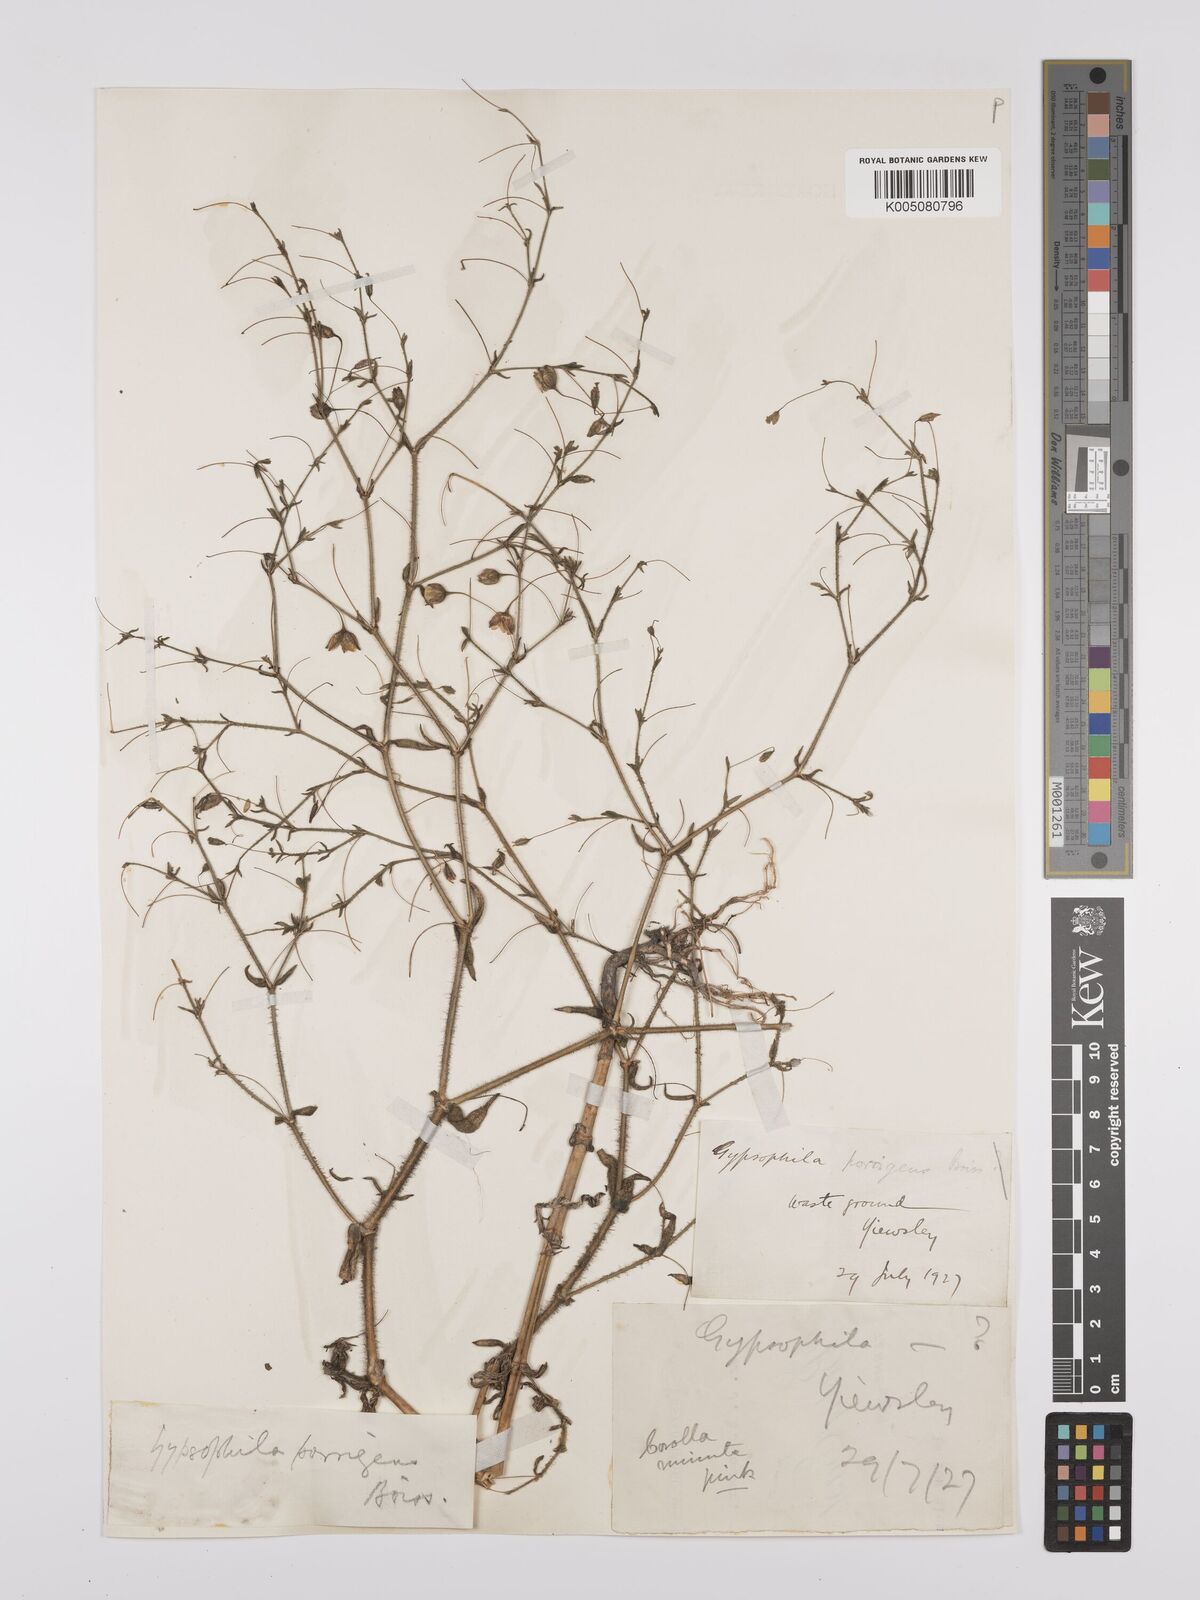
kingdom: Plantae
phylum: Tracheophyta
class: Magnoliopsida
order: Caryophyllales
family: Caryophyllaceae
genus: Gypsophila
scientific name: Gypsophila pilosa
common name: Turkish baby's-breath
